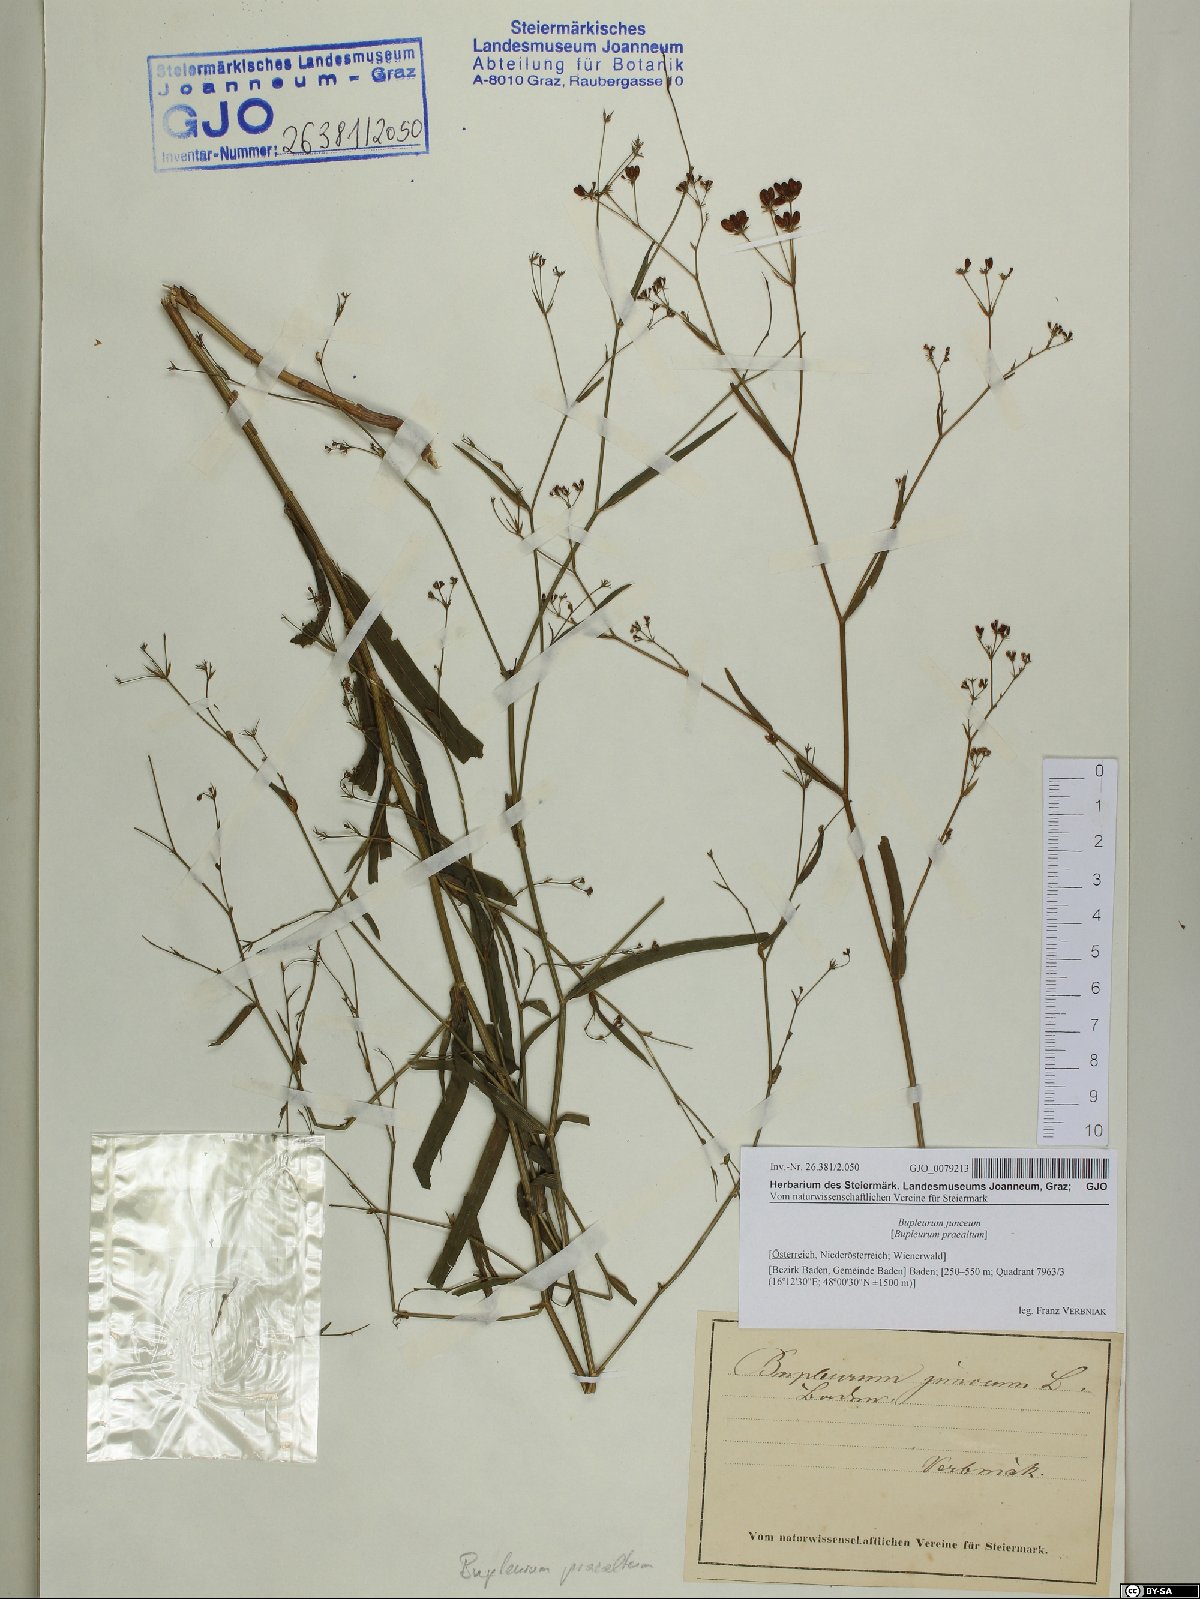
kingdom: Plantae
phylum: Tracheophyta
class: Magnoliopsida
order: Apiales
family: Apiaceae
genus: Bupleurum
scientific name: Bupleurum praealtum
